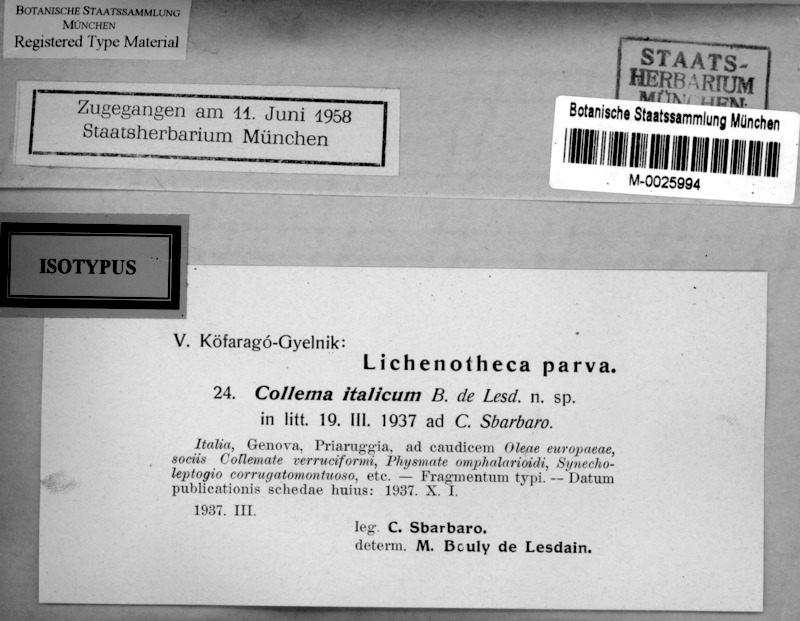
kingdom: Fungi
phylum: Ascomycota
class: Eurotiomycetes
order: Verrucariales
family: Verrucariaceae
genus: Verrucaria
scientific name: Verrucaria italica
